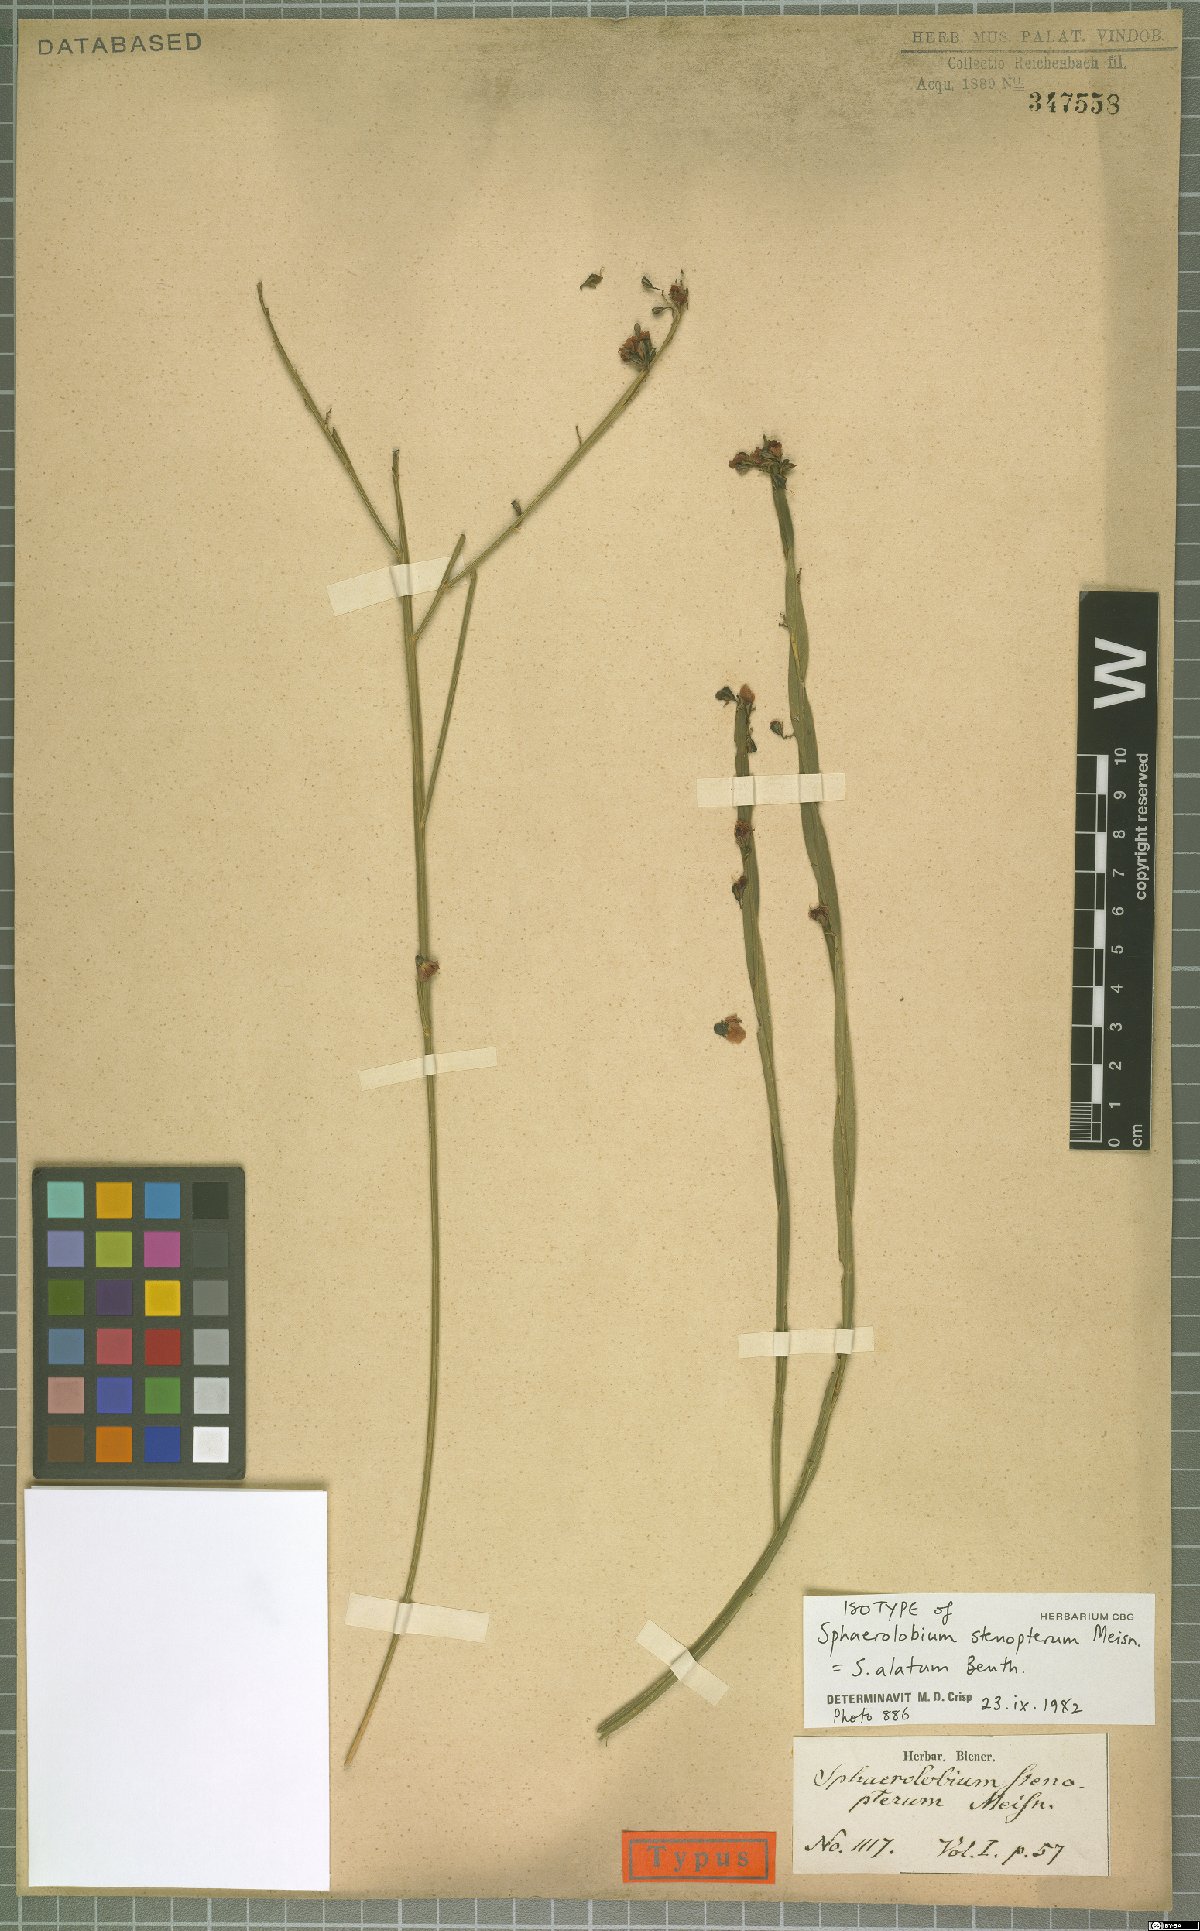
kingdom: Plantae
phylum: Tracheophyta
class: Magnoliopsida
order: Fabales
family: Fabaceae
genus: Sphaerolobium
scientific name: Sphaerolobium alatum
